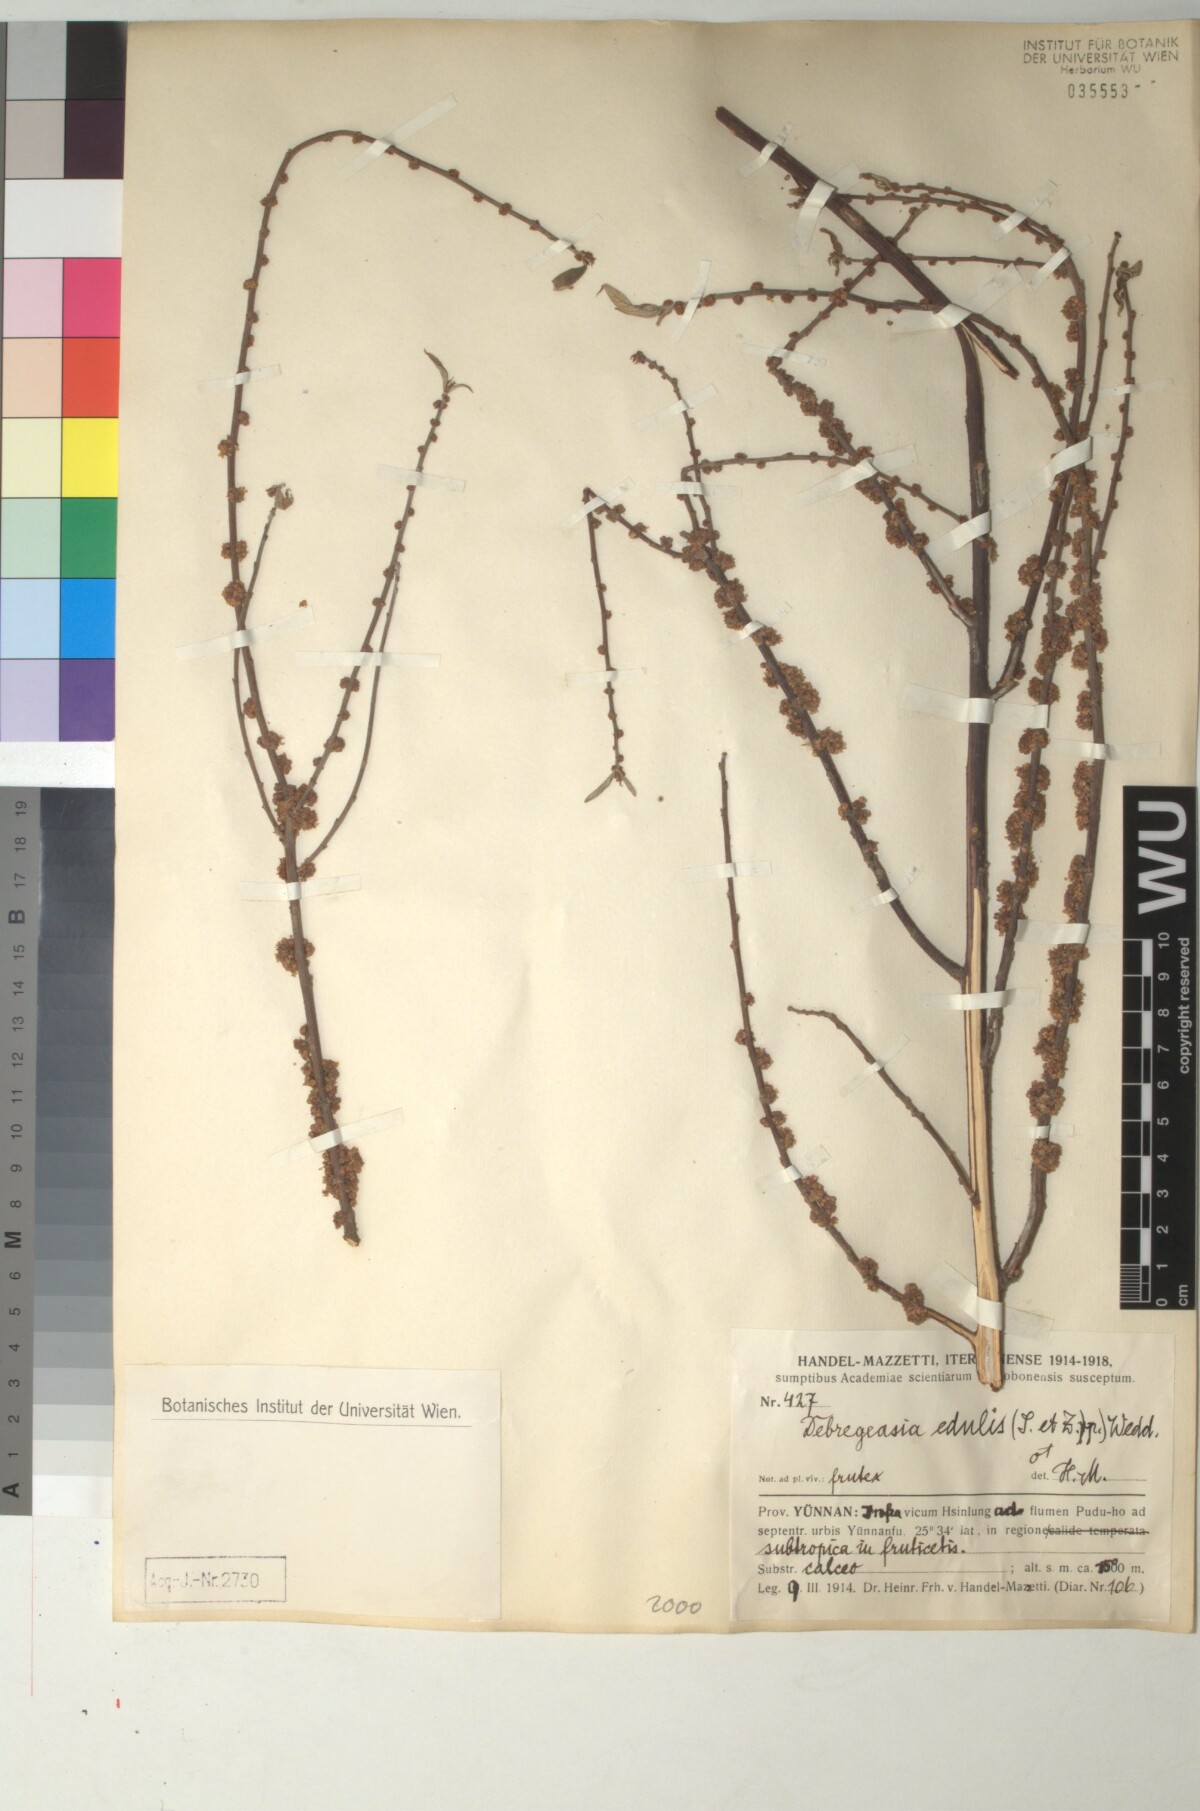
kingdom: Plantae
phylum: Tracheophyta
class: Magnoliopsida
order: Rosales
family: Urticaceae
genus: Debregeasia
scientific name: Debregeasia edulis
